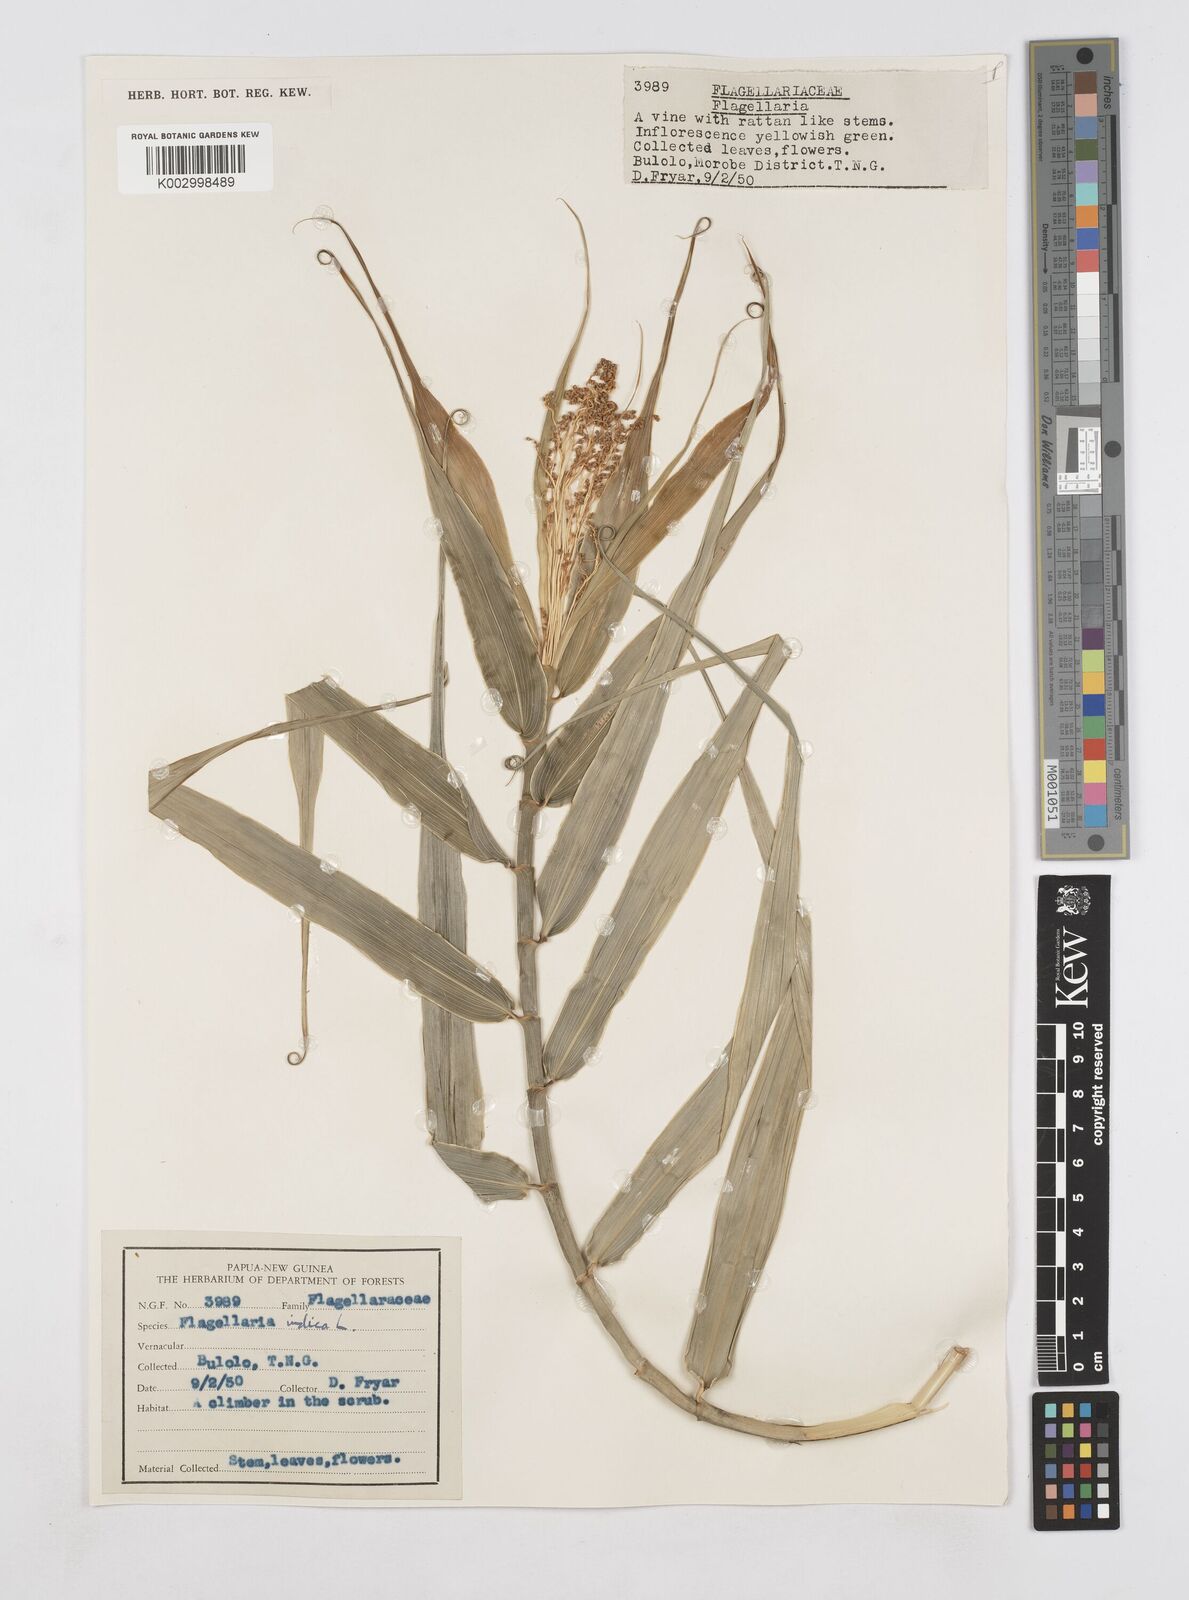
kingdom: Plantae
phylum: Tracheophyta
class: Liliopsida
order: Poales
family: Flagellariaceae
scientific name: Flagellariaceae
